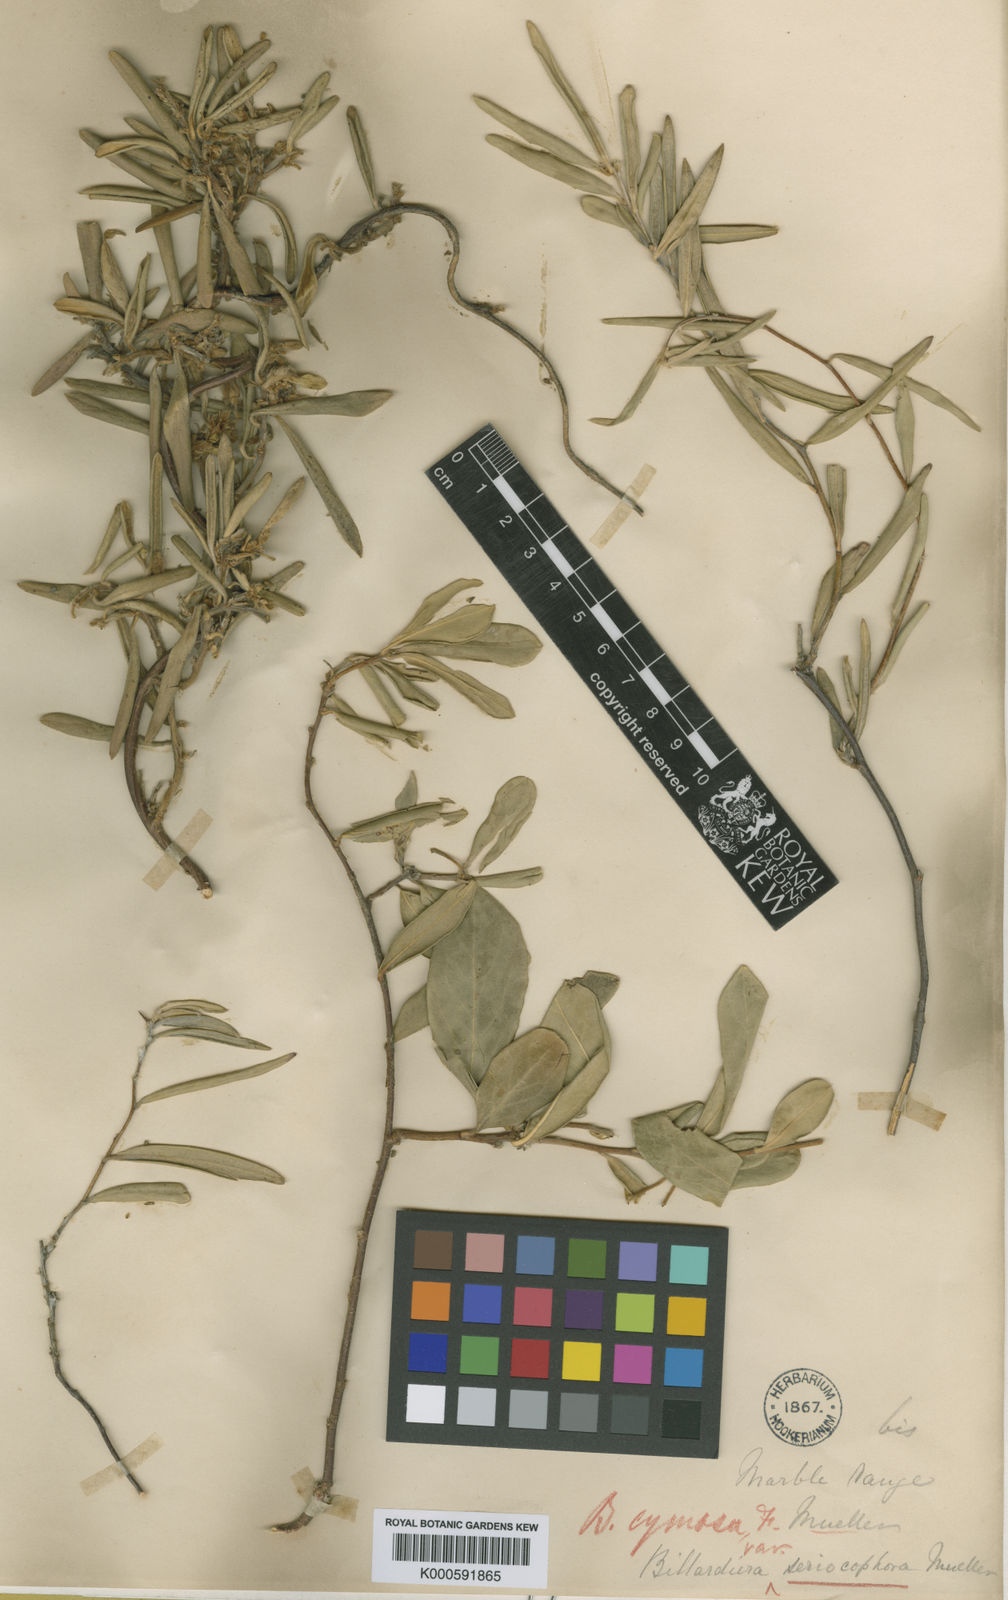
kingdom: Plantae
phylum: Tracheophyta
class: Magnoliopsida
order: Apiales
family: Pittosporaceae
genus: Billardiera
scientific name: Billardiera sericophora
